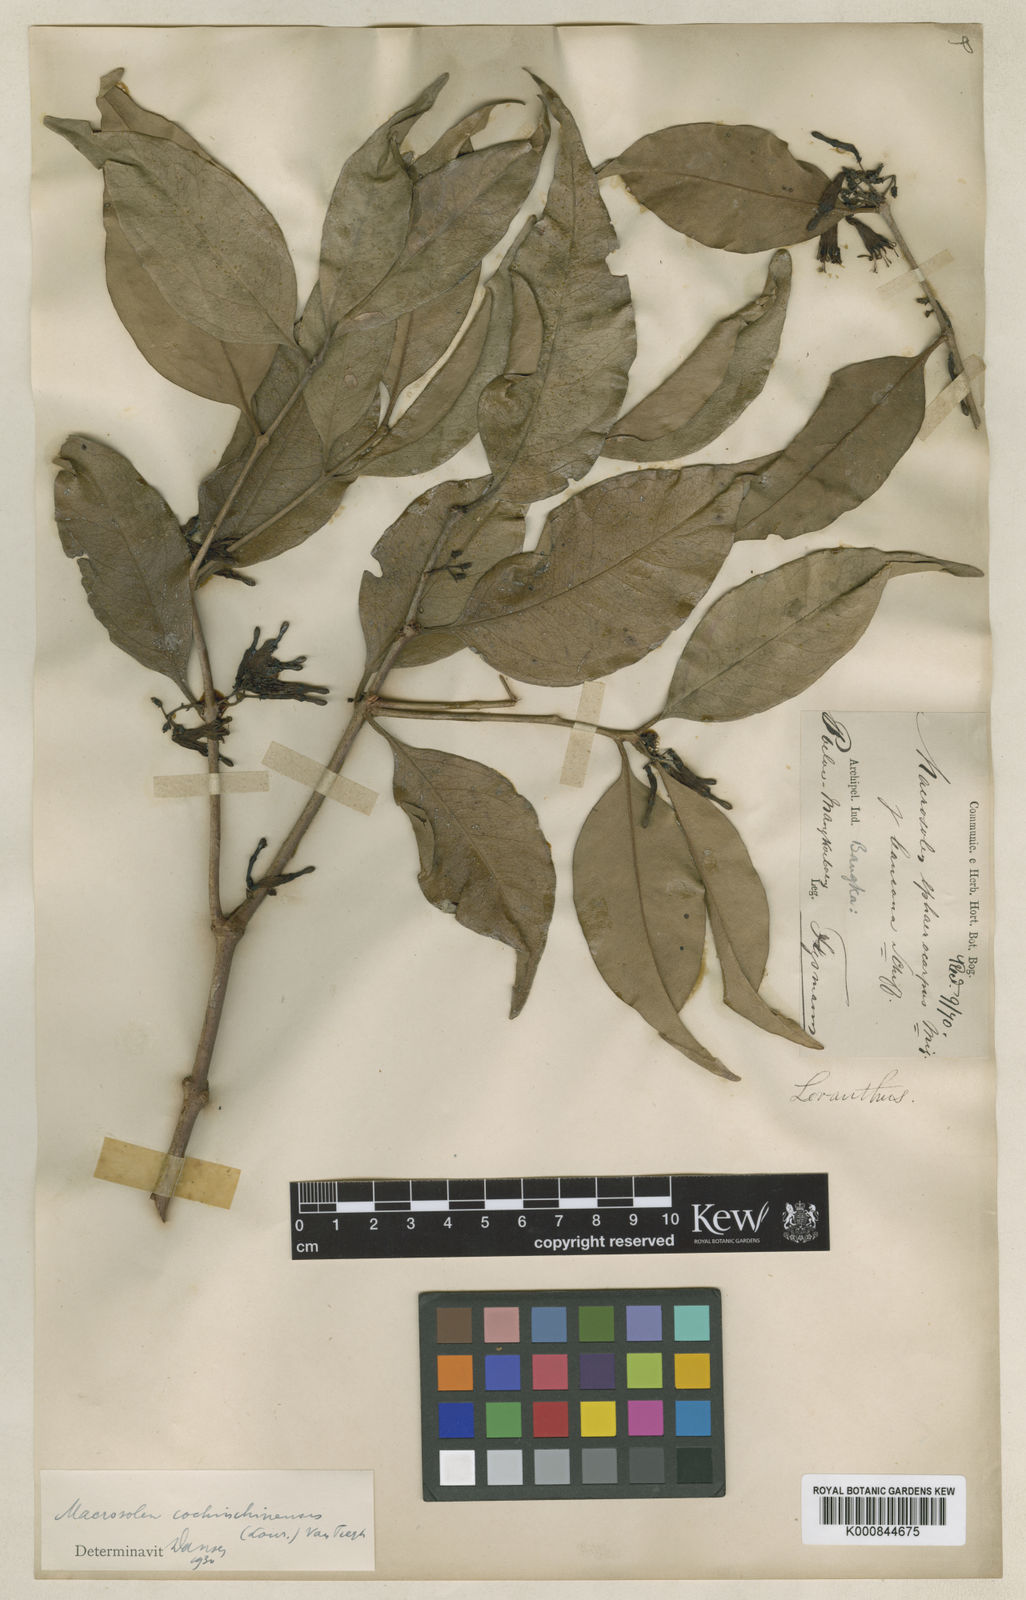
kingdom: Plantae
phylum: Tracheophyta
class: Magnoliopsida
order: Santalales
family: Loranthaceae
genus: Macrosolen
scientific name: Macrosolen cochinchinensis
